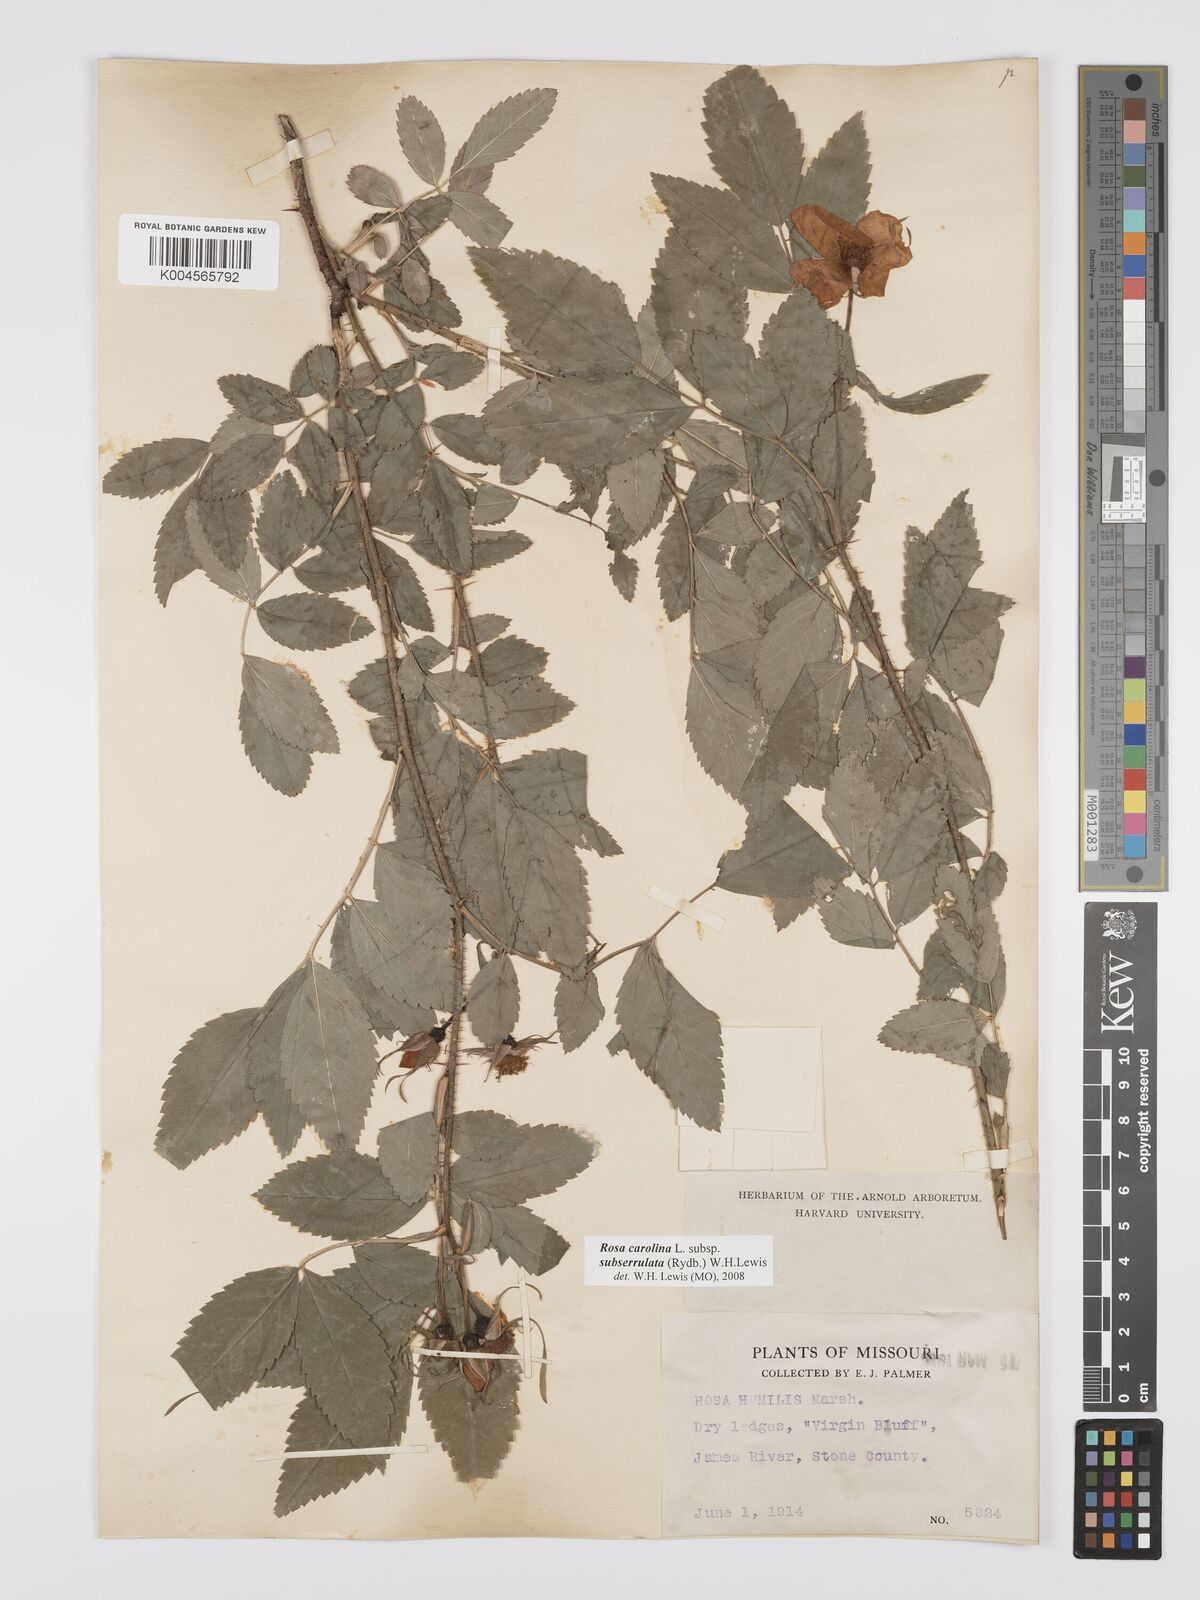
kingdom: Plantae
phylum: Tracheophyta
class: Magnoliopsida
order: Rosales
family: Rosaceae
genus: Rosa
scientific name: Rosa carolina
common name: Pasture rose
